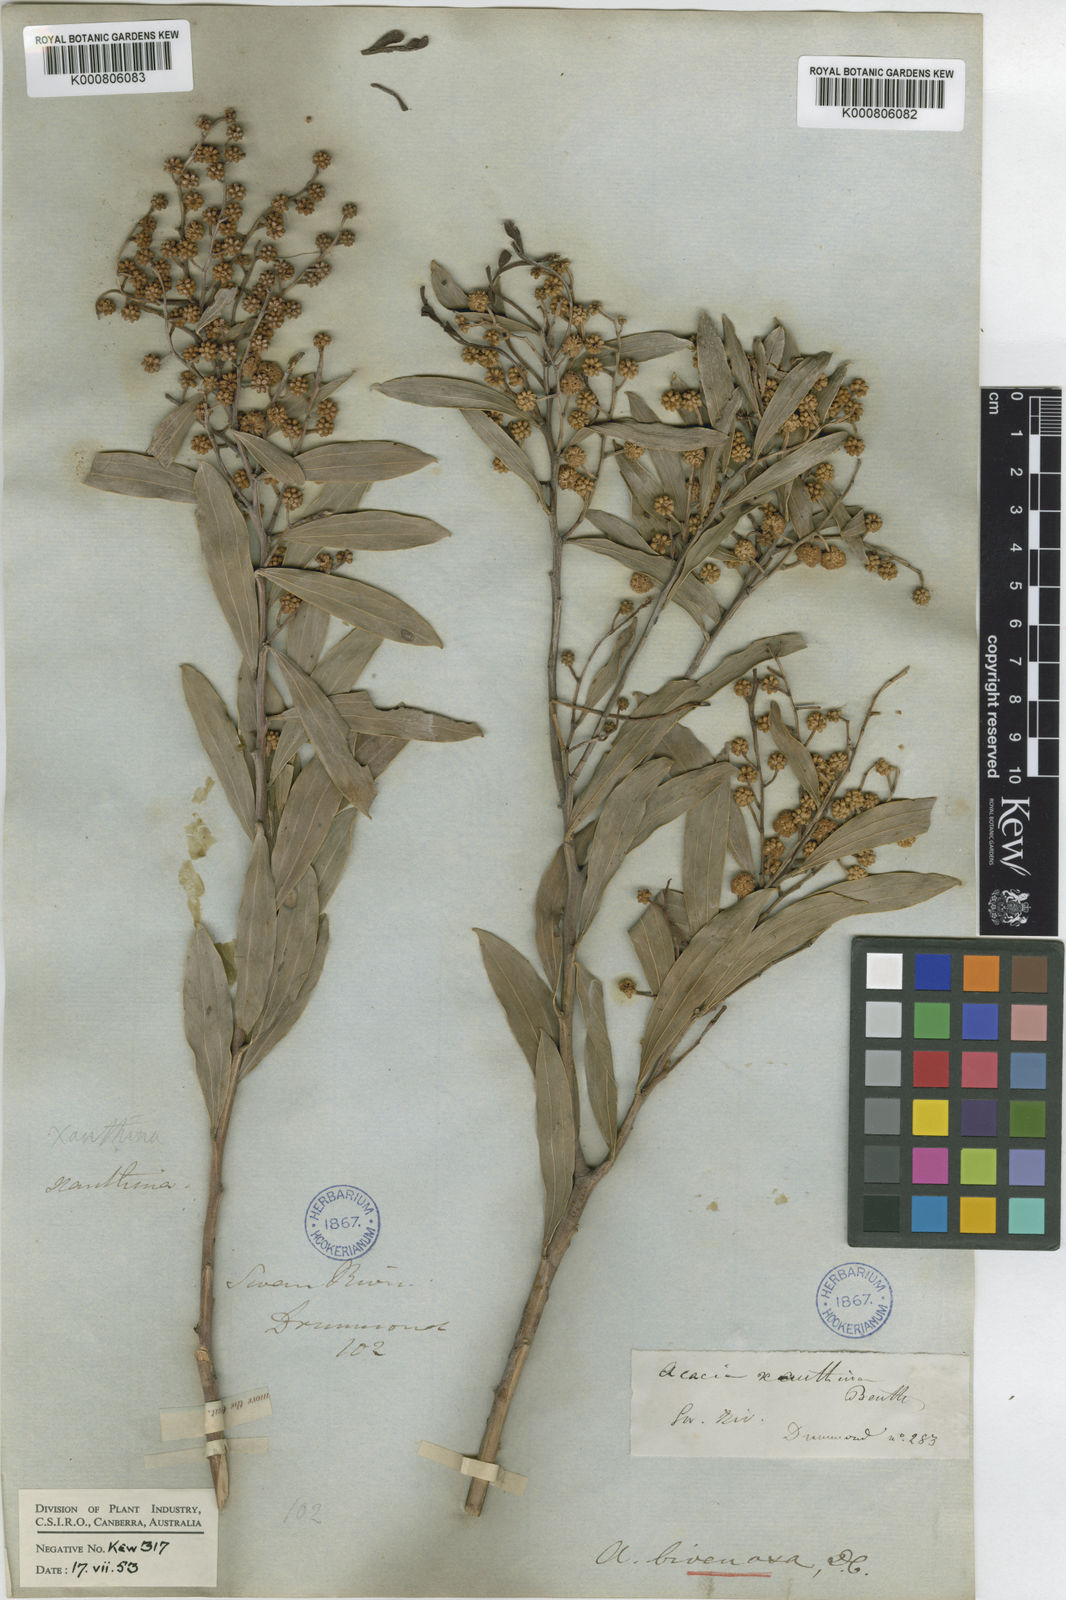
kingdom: Plantae
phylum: Tracheophyta
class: Magnoliopsida
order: Fabales
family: Fabaceae
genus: Acacia
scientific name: Acacia bivenosa
